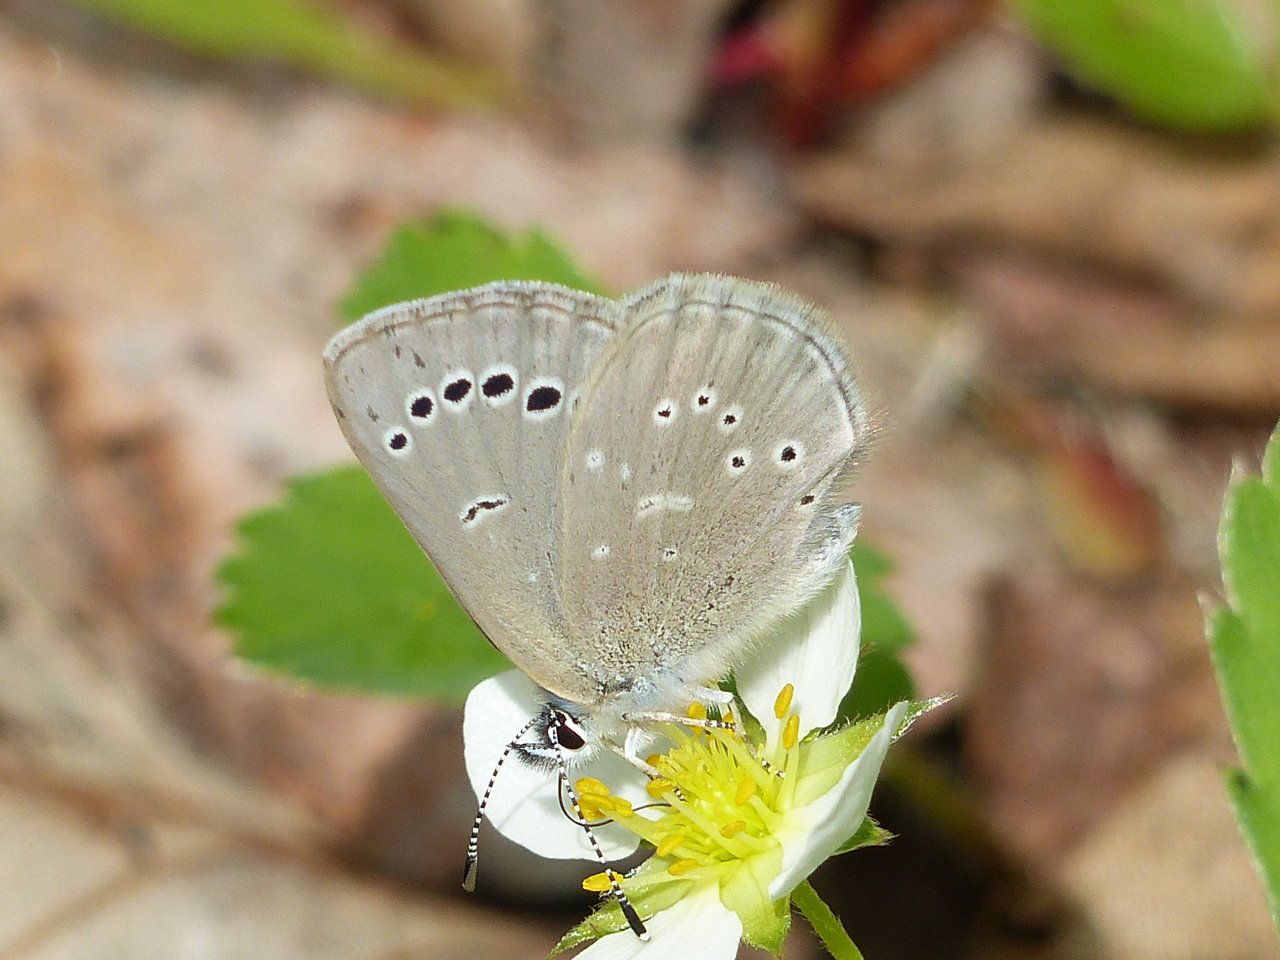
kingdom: Animalia
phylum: Arthropoda
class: Insecta
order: Lepidoptera
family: Lycaenidae
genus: Glaucopsyche
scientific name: Glaucopsyche lygdamus
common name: Silvery Blue
